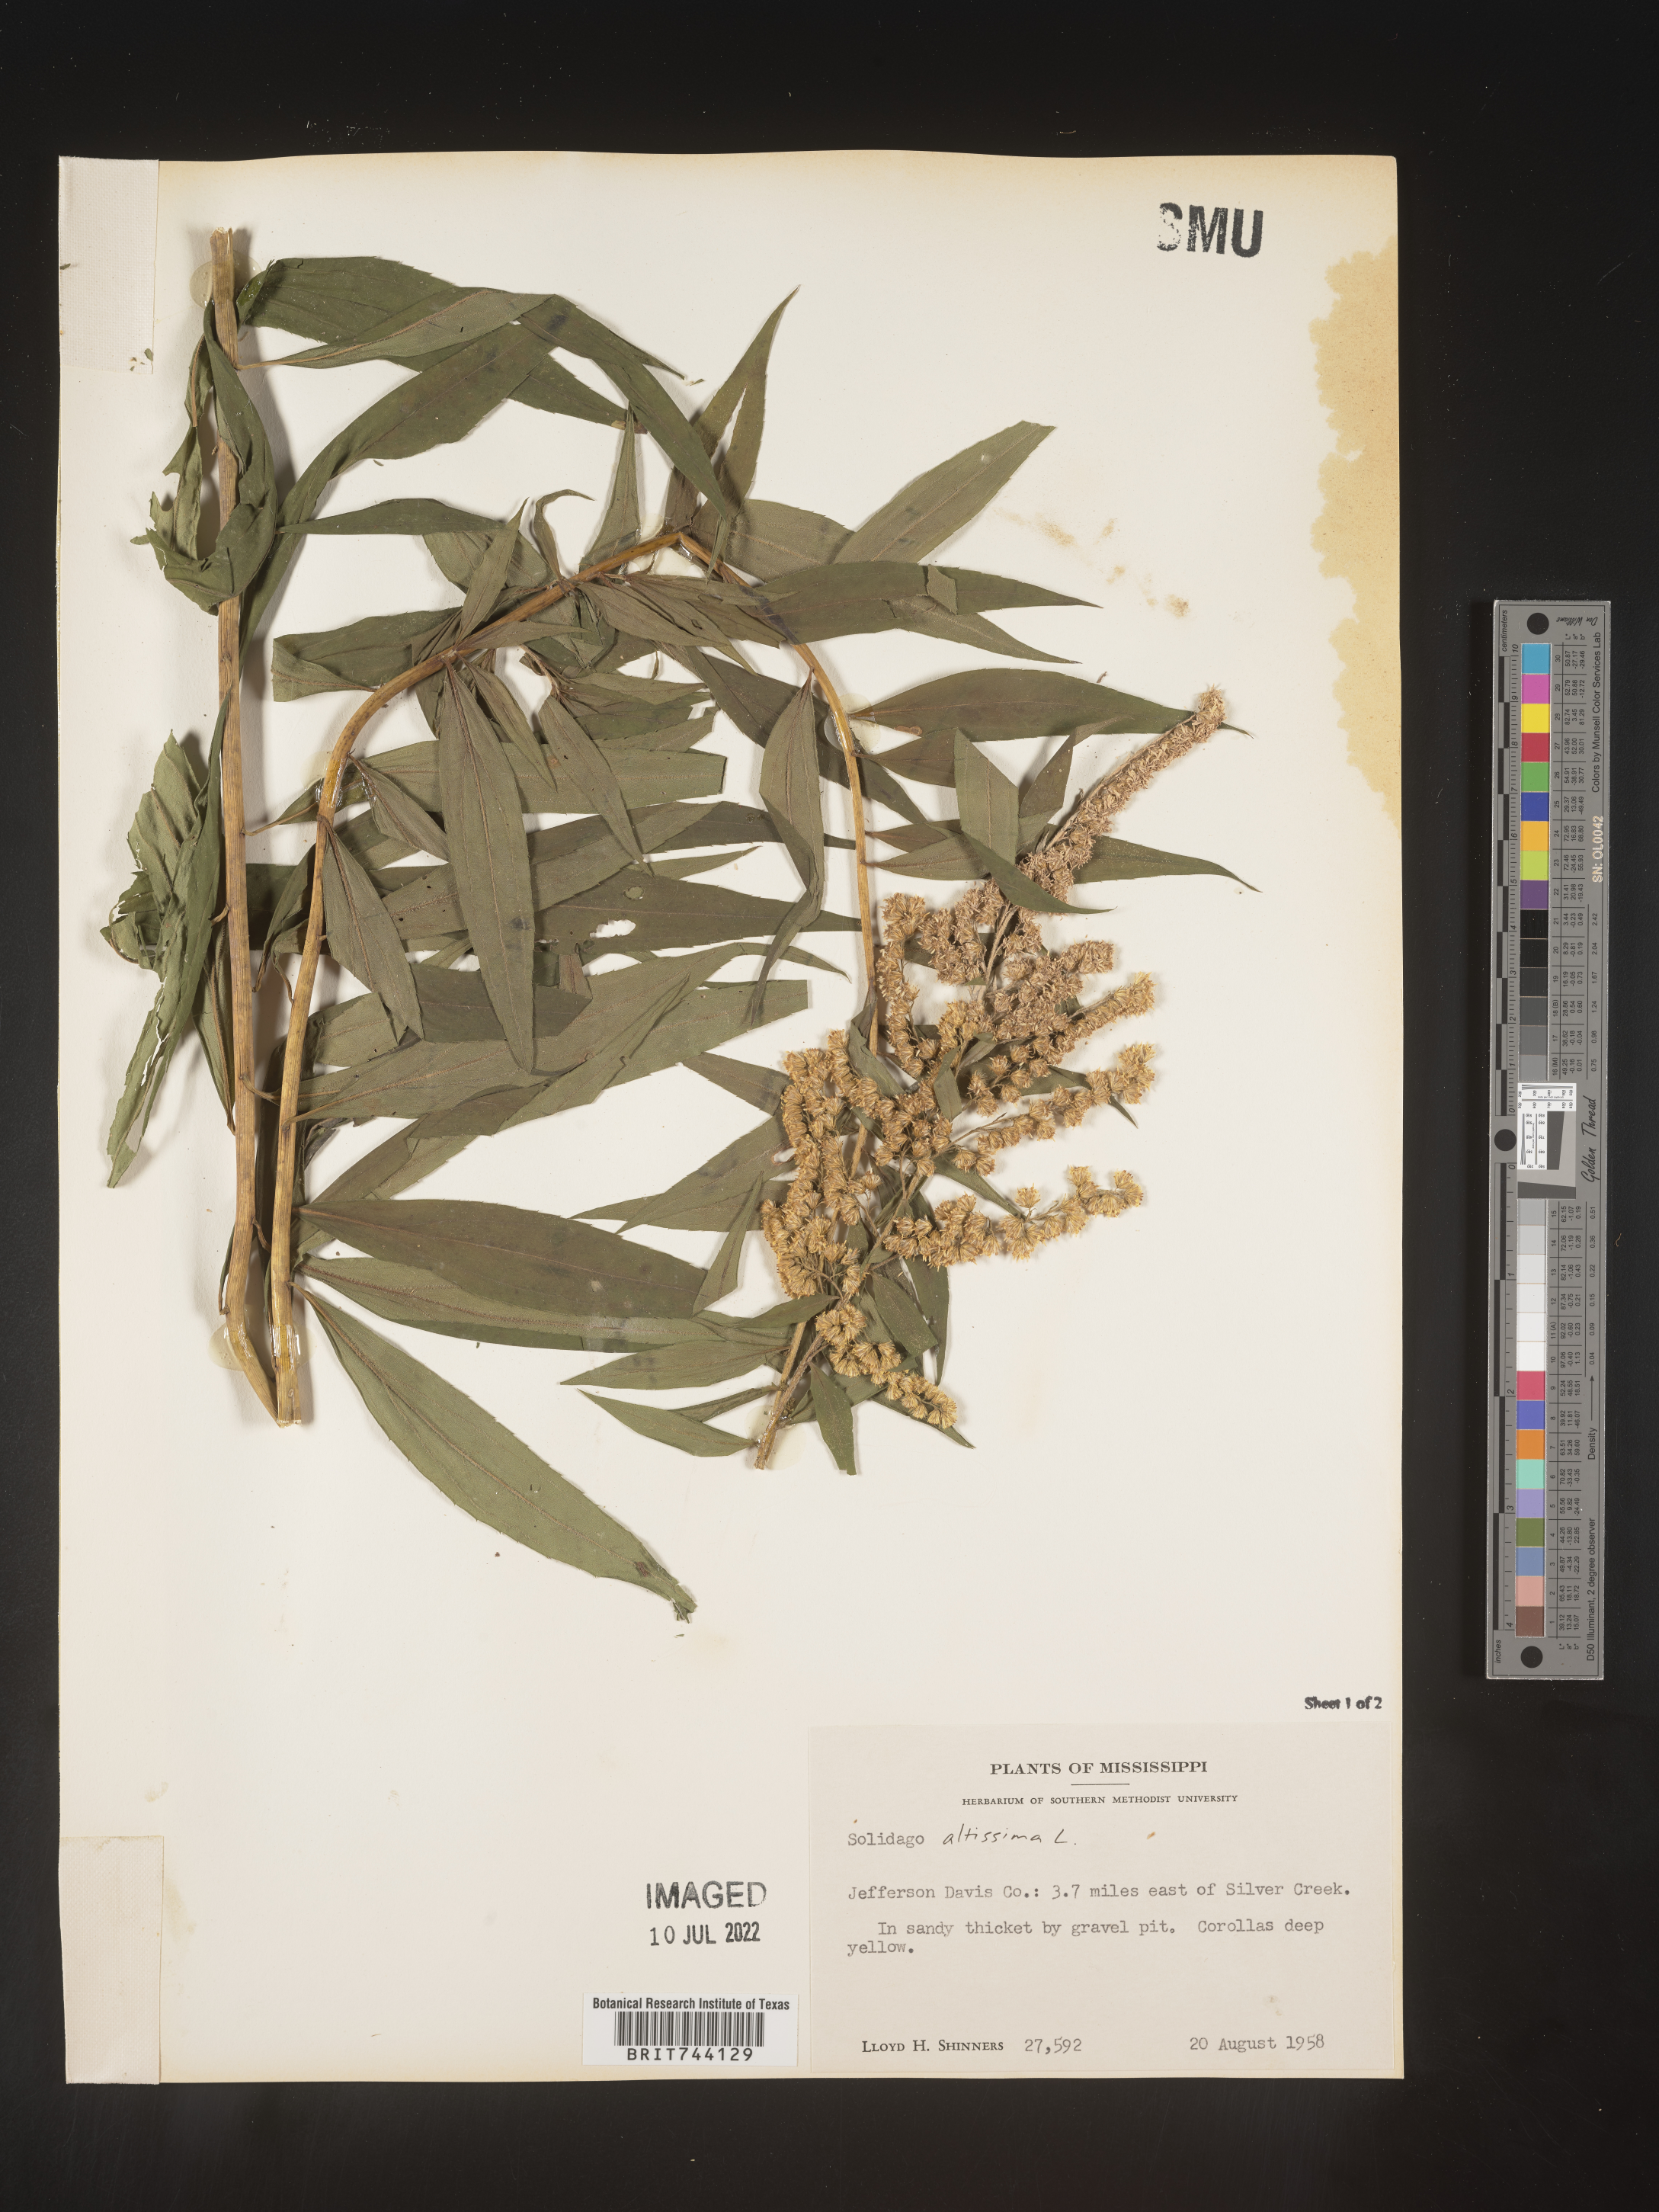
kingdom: Plantae
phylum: Tracheophyta
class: Magnoliopsida
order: Asterales
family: Asteraceae
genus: Solidago
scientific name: Solidago altissima
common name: Late goldenrod
